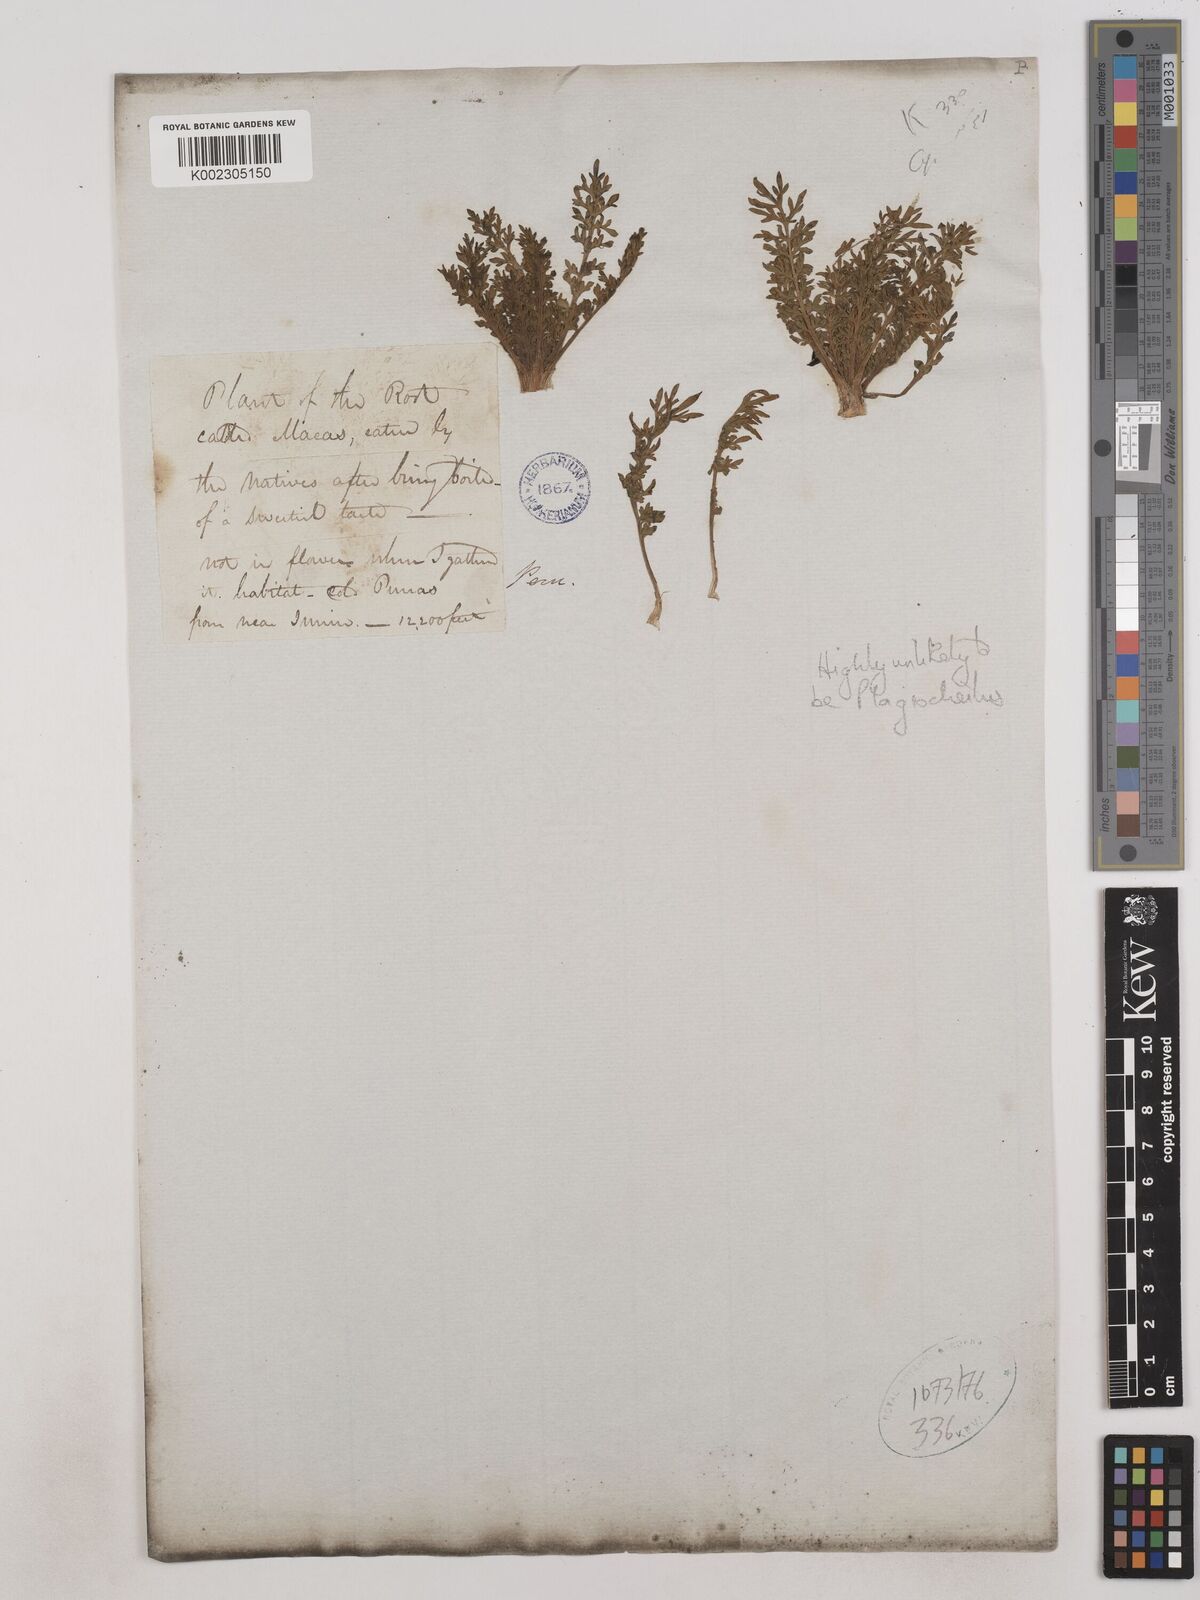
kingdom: Plantae
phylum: Tracheophyta
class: Magnoliopsida
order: Asterales
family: Asteraceae
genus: Plagiocheilus
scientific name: Plagiocheilus
